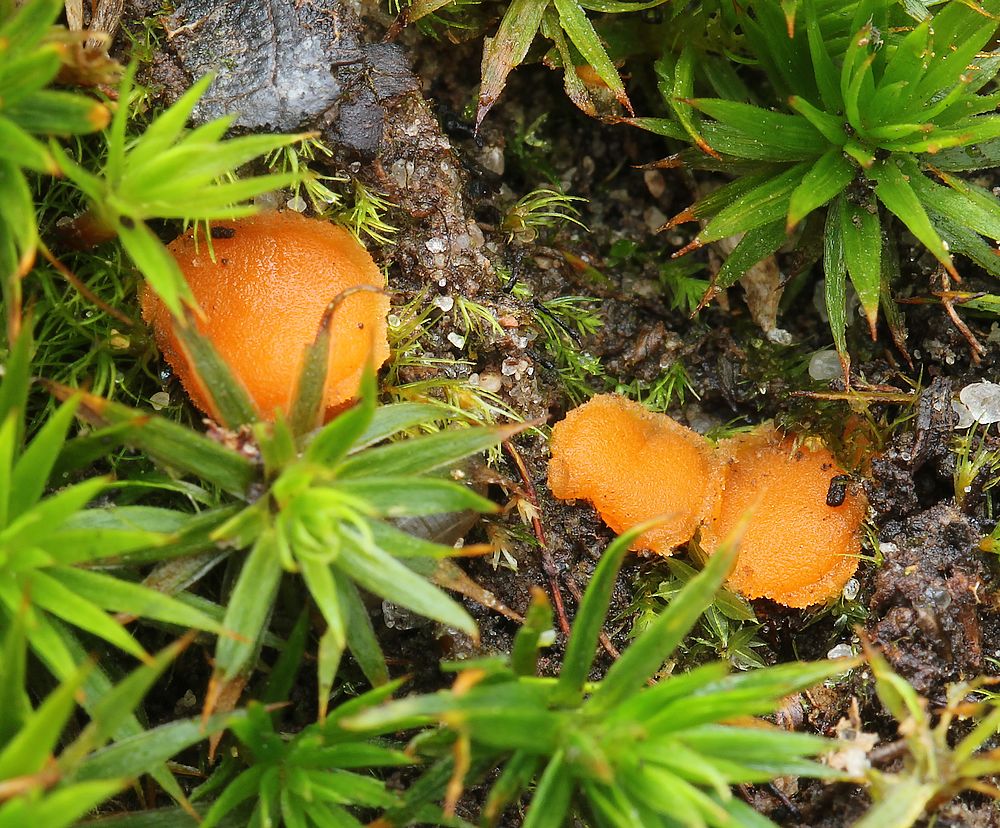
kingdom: Fungi
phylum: Ascomycota
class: Pezizomycetes
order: Pezizales
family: Pyronemataceae
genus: Octospora
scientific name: Octospora humosa
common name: Hotlips
